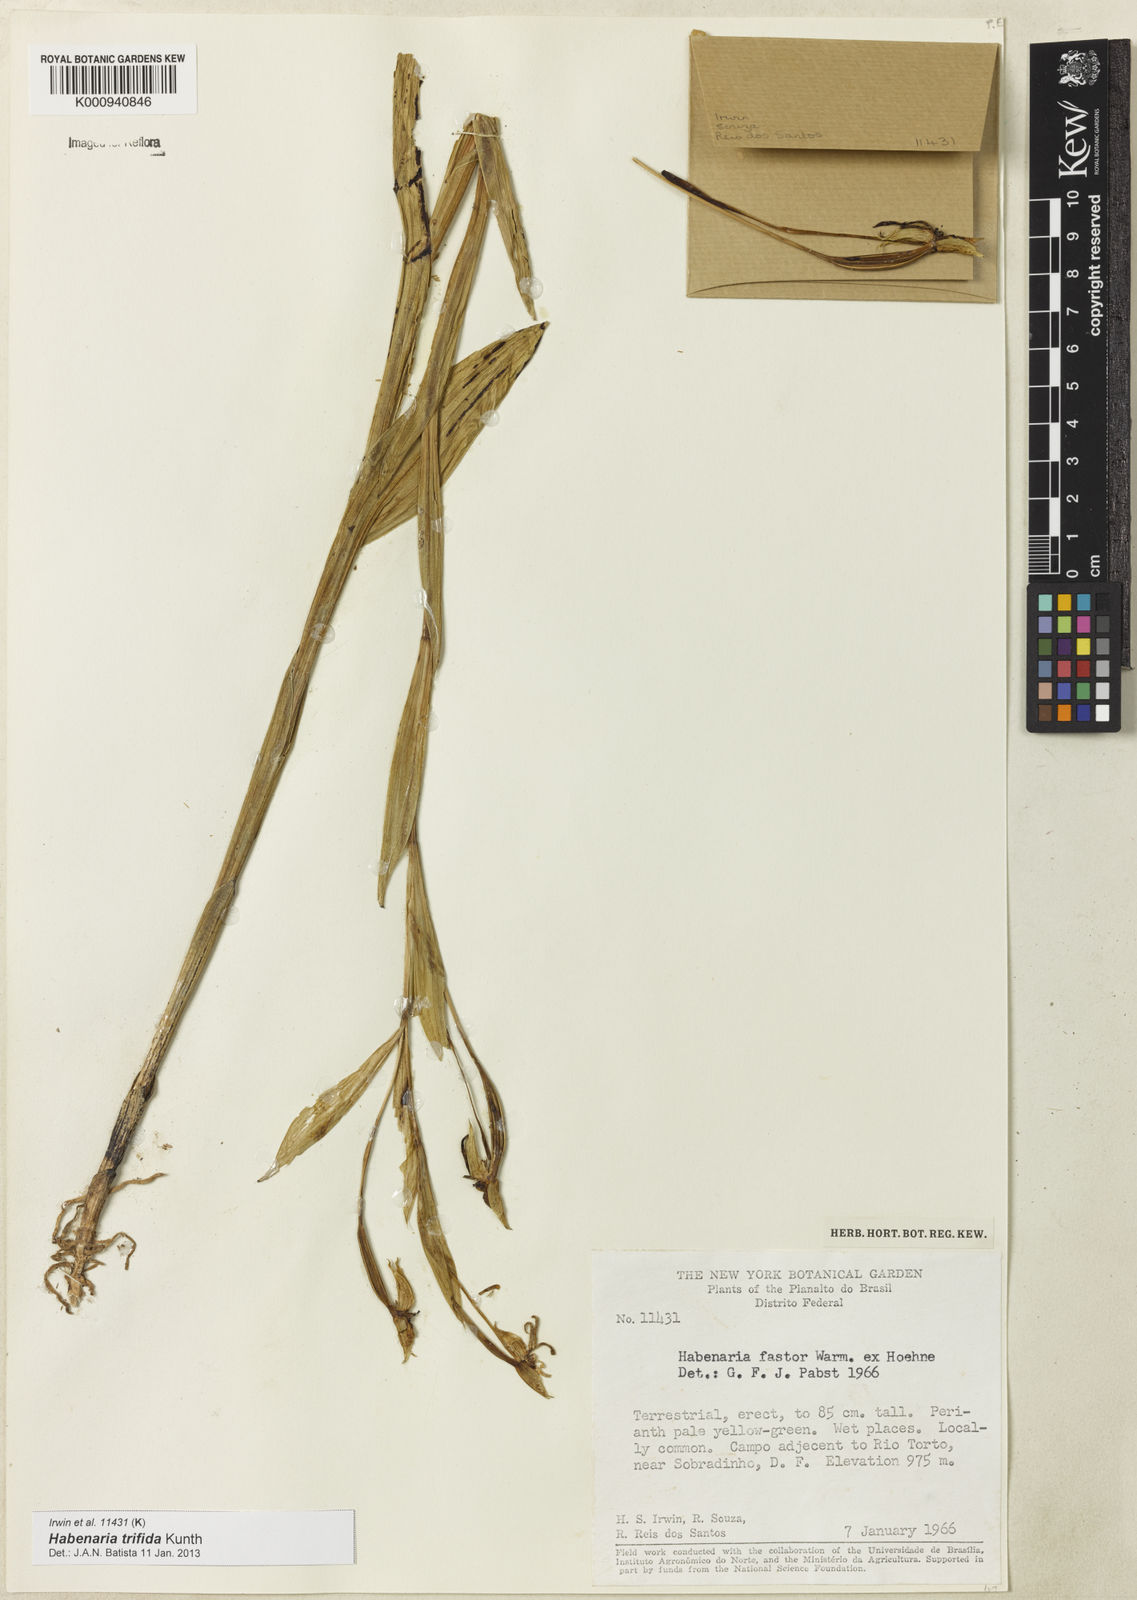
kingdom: Plantae
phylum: Tracheophyta
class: Liliopsida
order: Asparagales
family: Orchidaceae
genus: Habenaria
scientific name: Habenaria trifida
